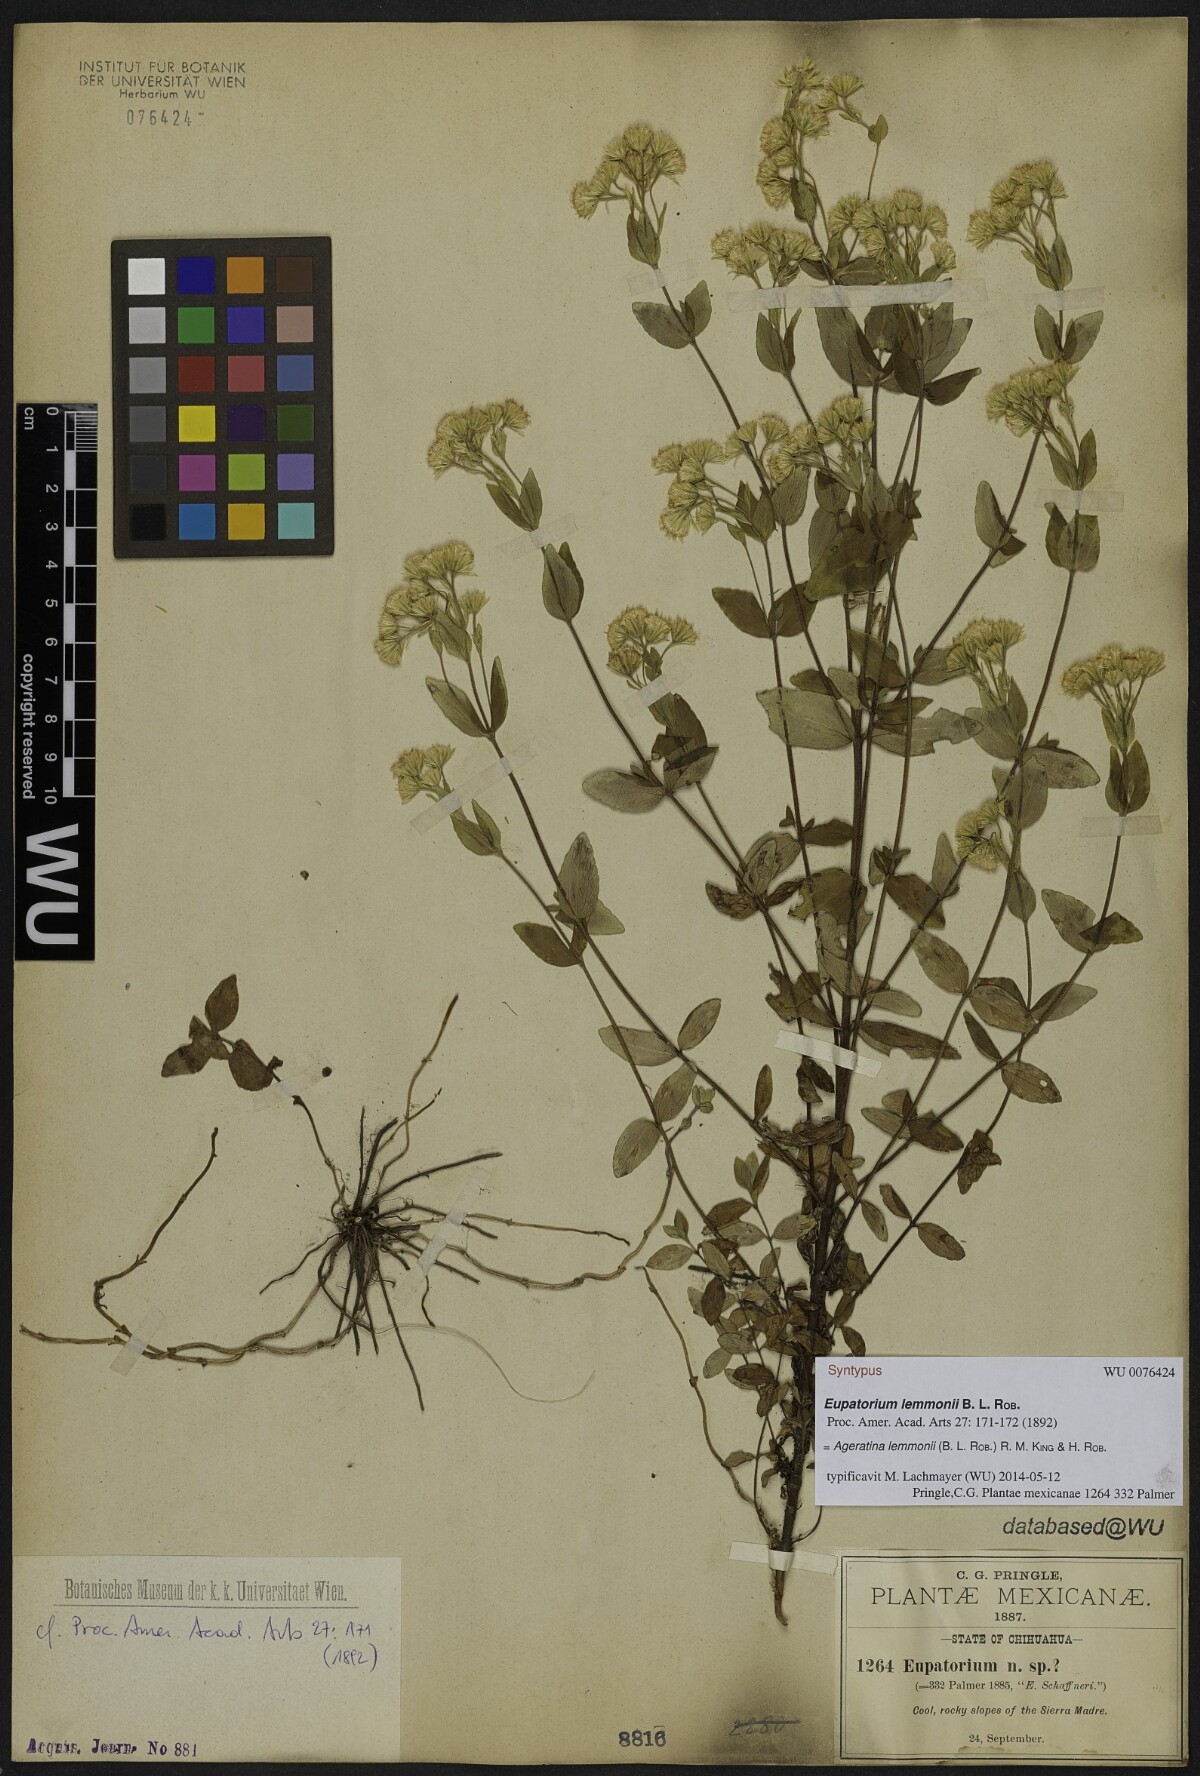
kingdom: Plantae
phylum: Tracheophyta
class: Magnoliopsida
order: Asterales
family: Asteraceae
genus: Ageratina
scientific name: Ageratina lemmonii
